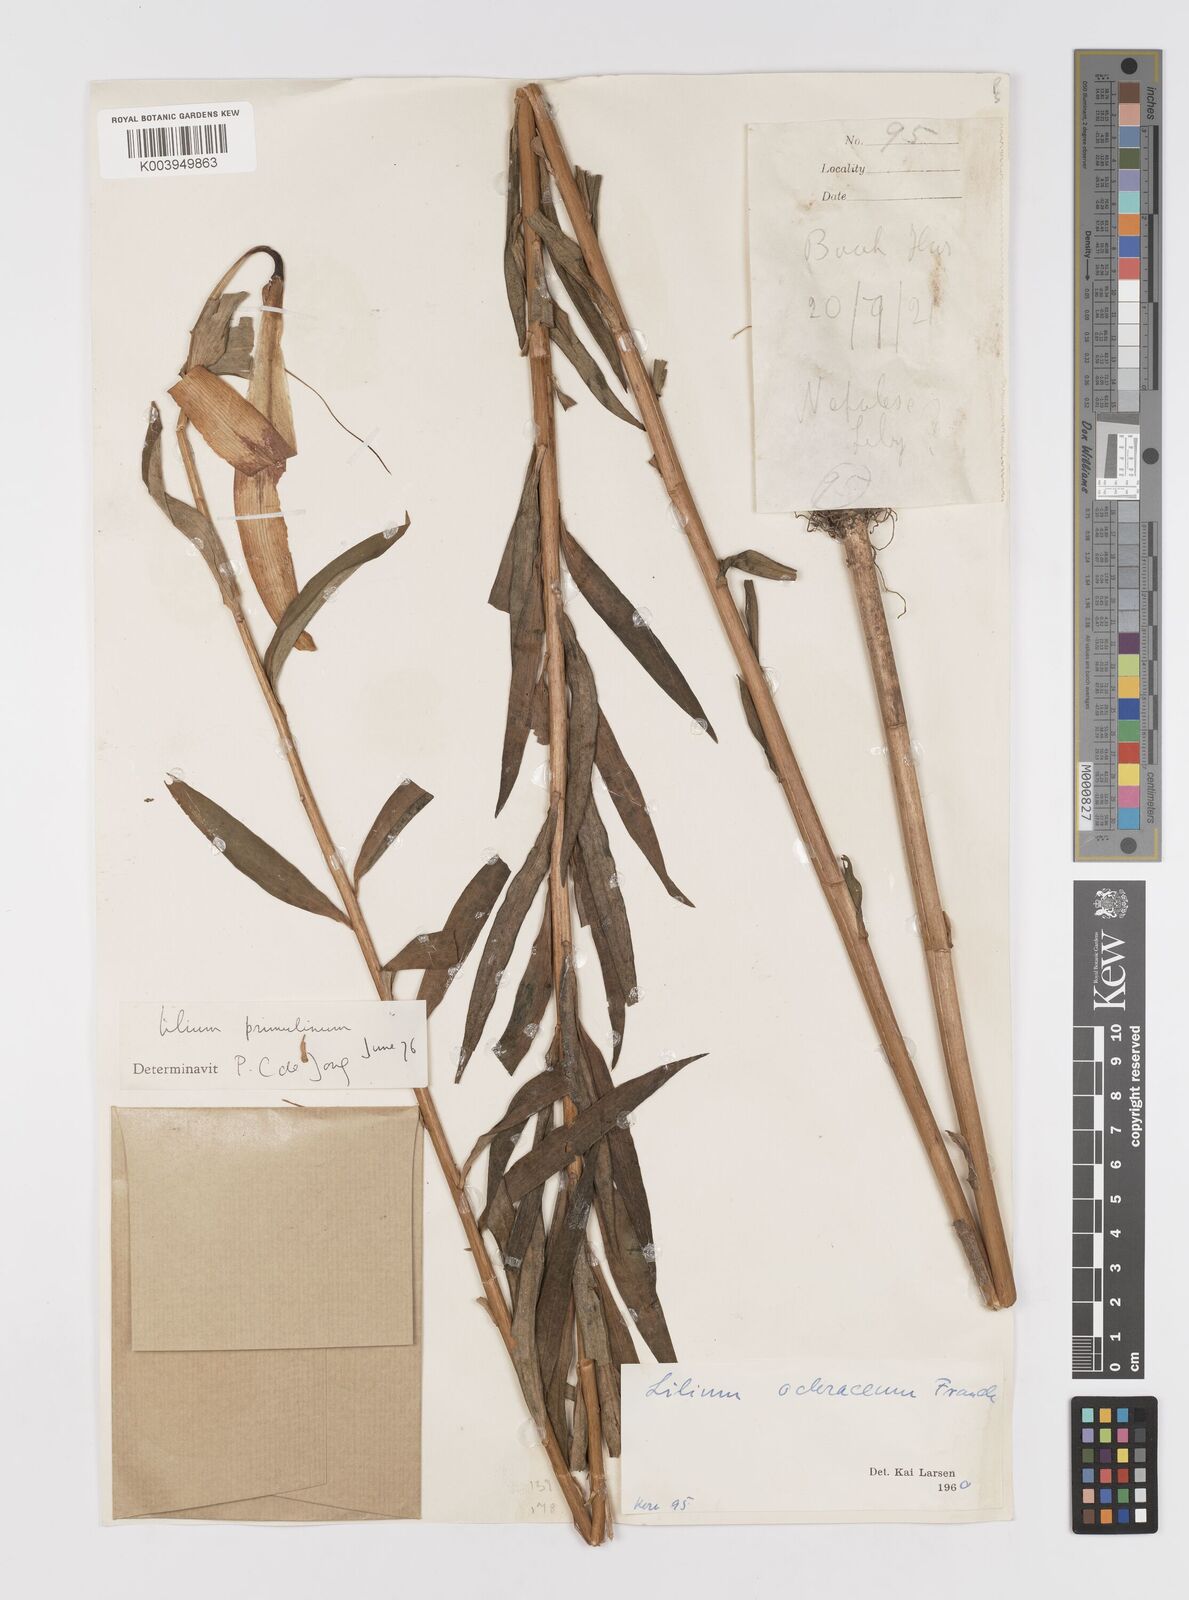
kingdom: Plantae
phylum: Tracheophyta
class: Liliopsida
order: Liliales
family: Liliaceae
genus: Lilium
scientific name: Lilium primulinum
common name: Ochre lily
